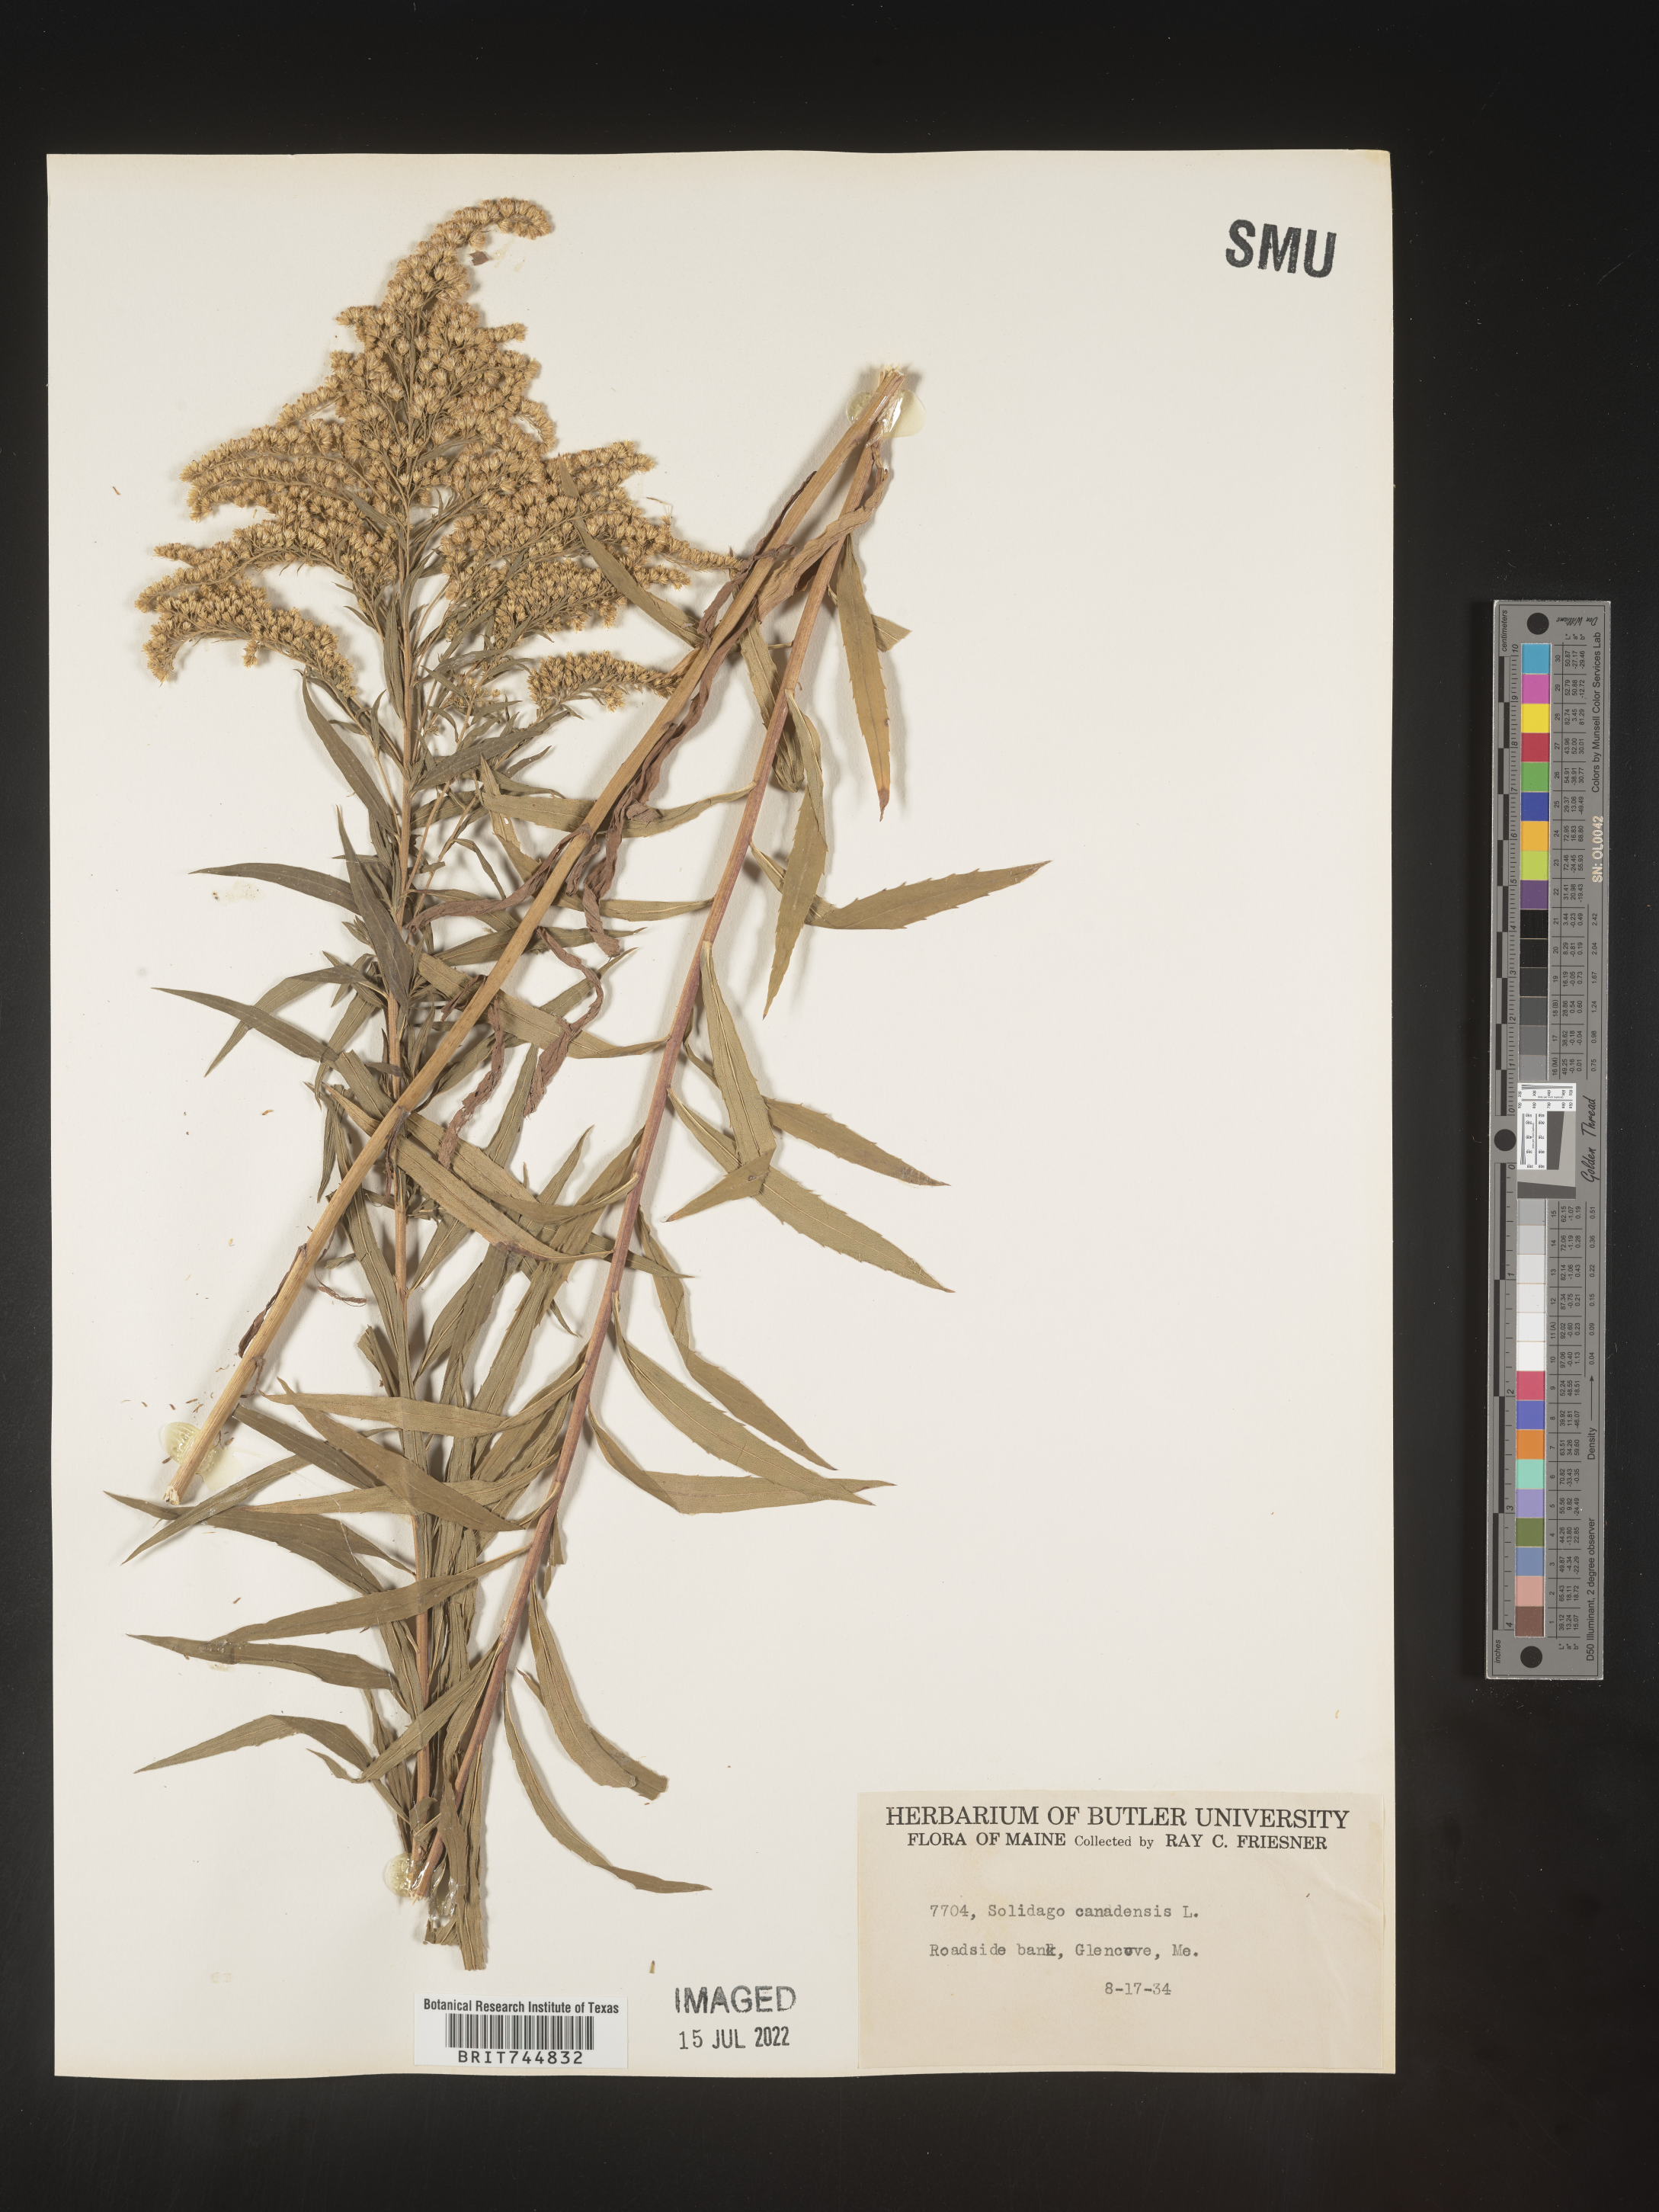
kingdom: Plantae
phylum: Tracheophyta
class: Magnoliopsida
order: Asterales
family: Asteraceae
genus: Solidago
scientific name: Solidago canadensis
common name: Canada goldenrod
